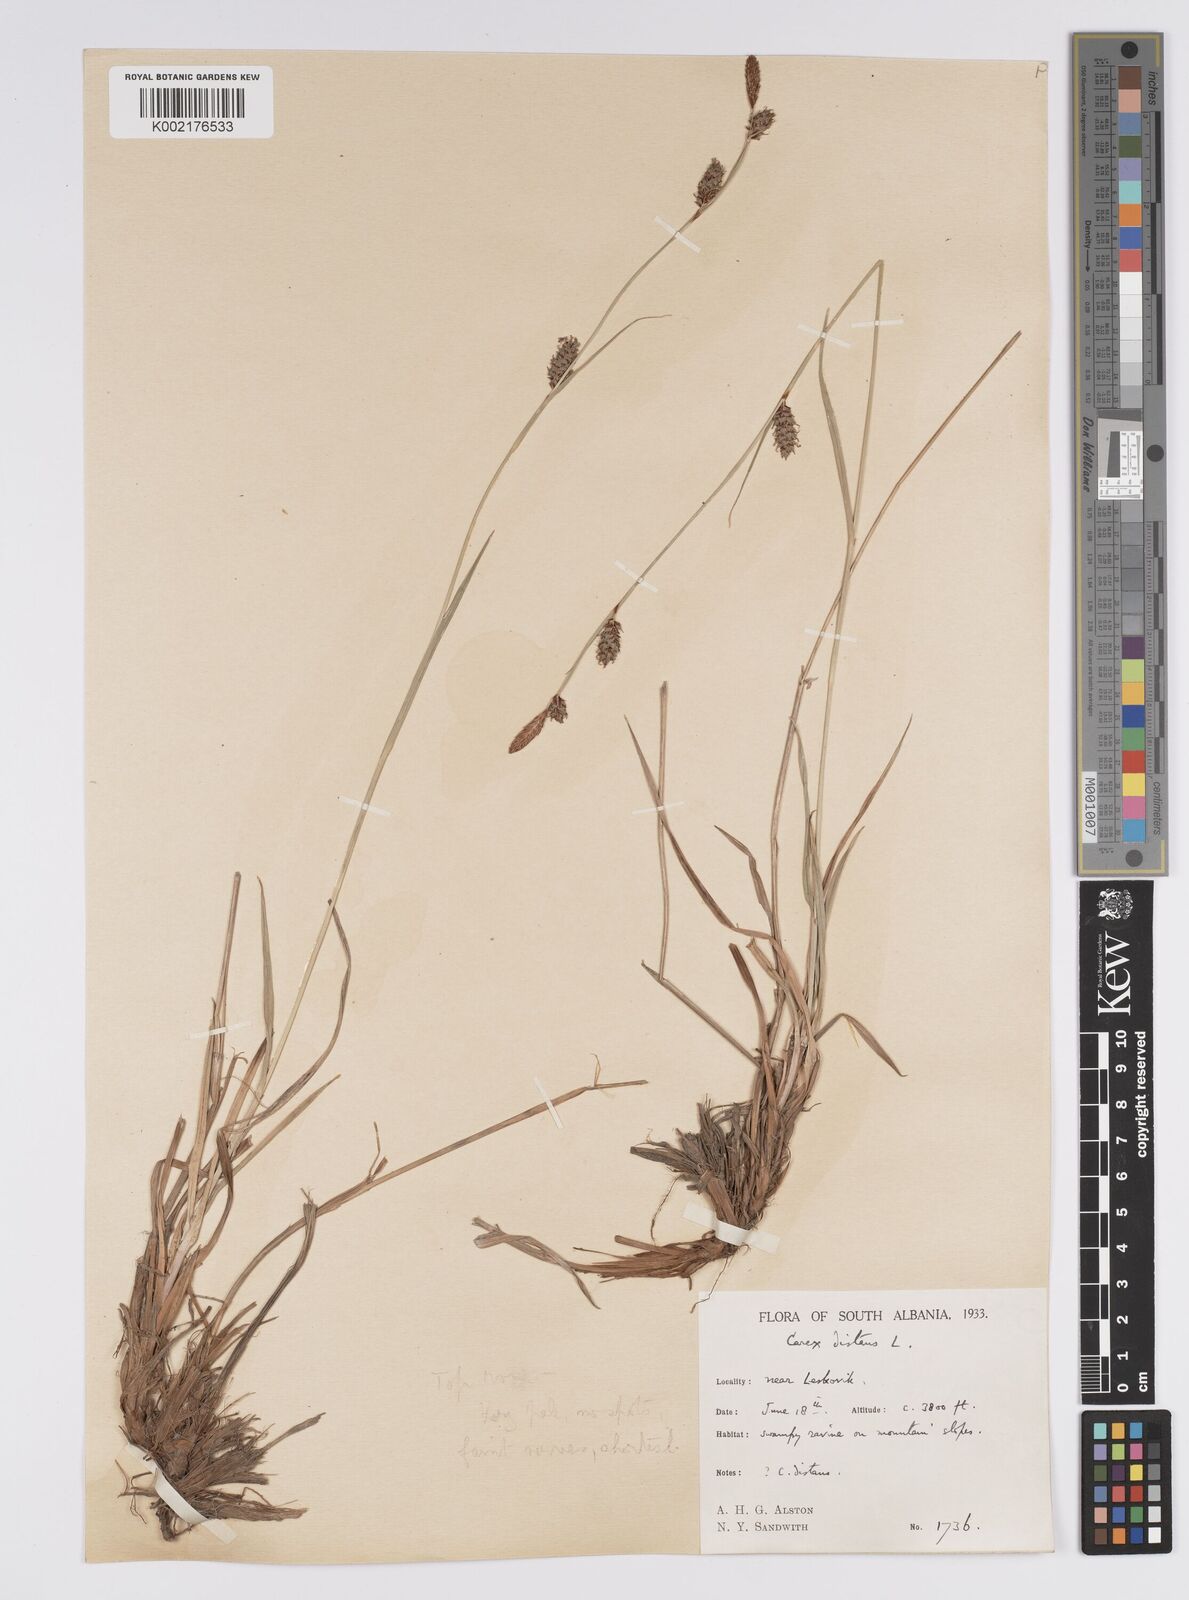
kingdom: Plantae
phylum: Tracheophyta
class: Liliopsida
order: Poales
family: Cyperaceae
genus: Carex
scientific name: Carex distans
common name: Distant sedge
